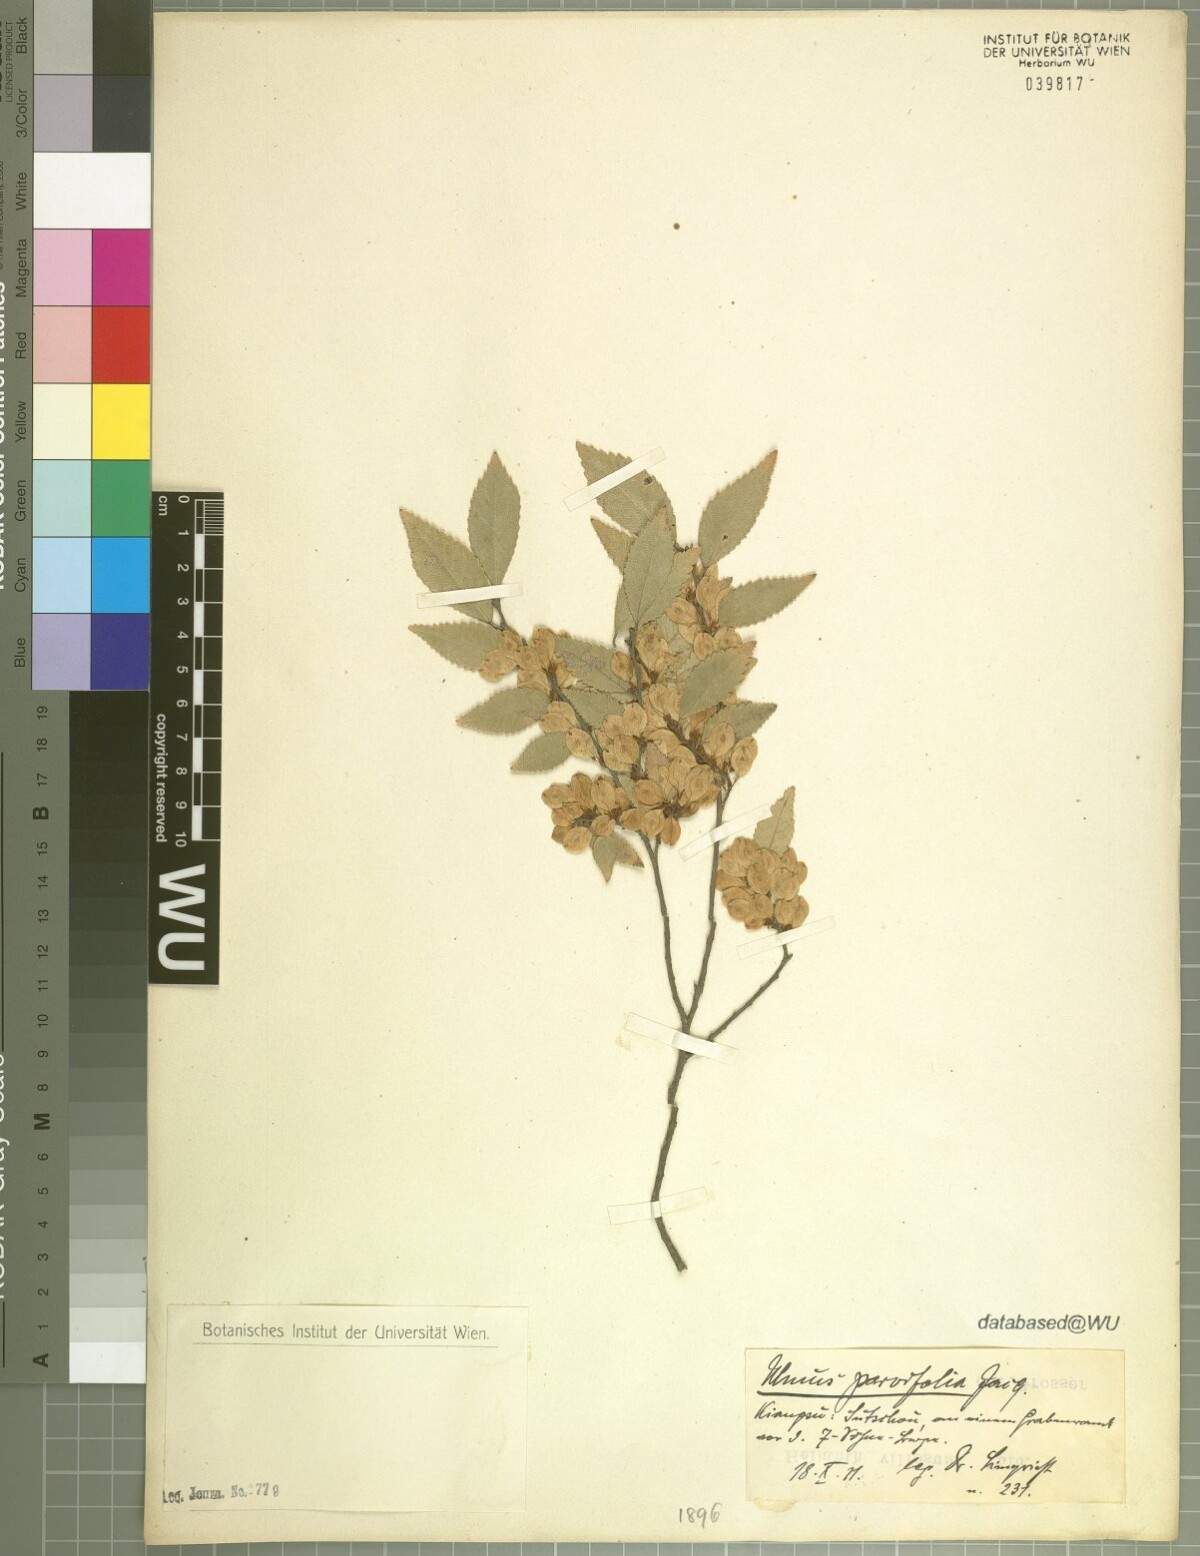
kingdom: Plantae
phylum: Tracheophyta
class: Magnoliopsida
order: Rosales
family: Ulmaceae
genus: Ulmus
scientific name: Ulmus parvifolia
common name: Chinese elm
